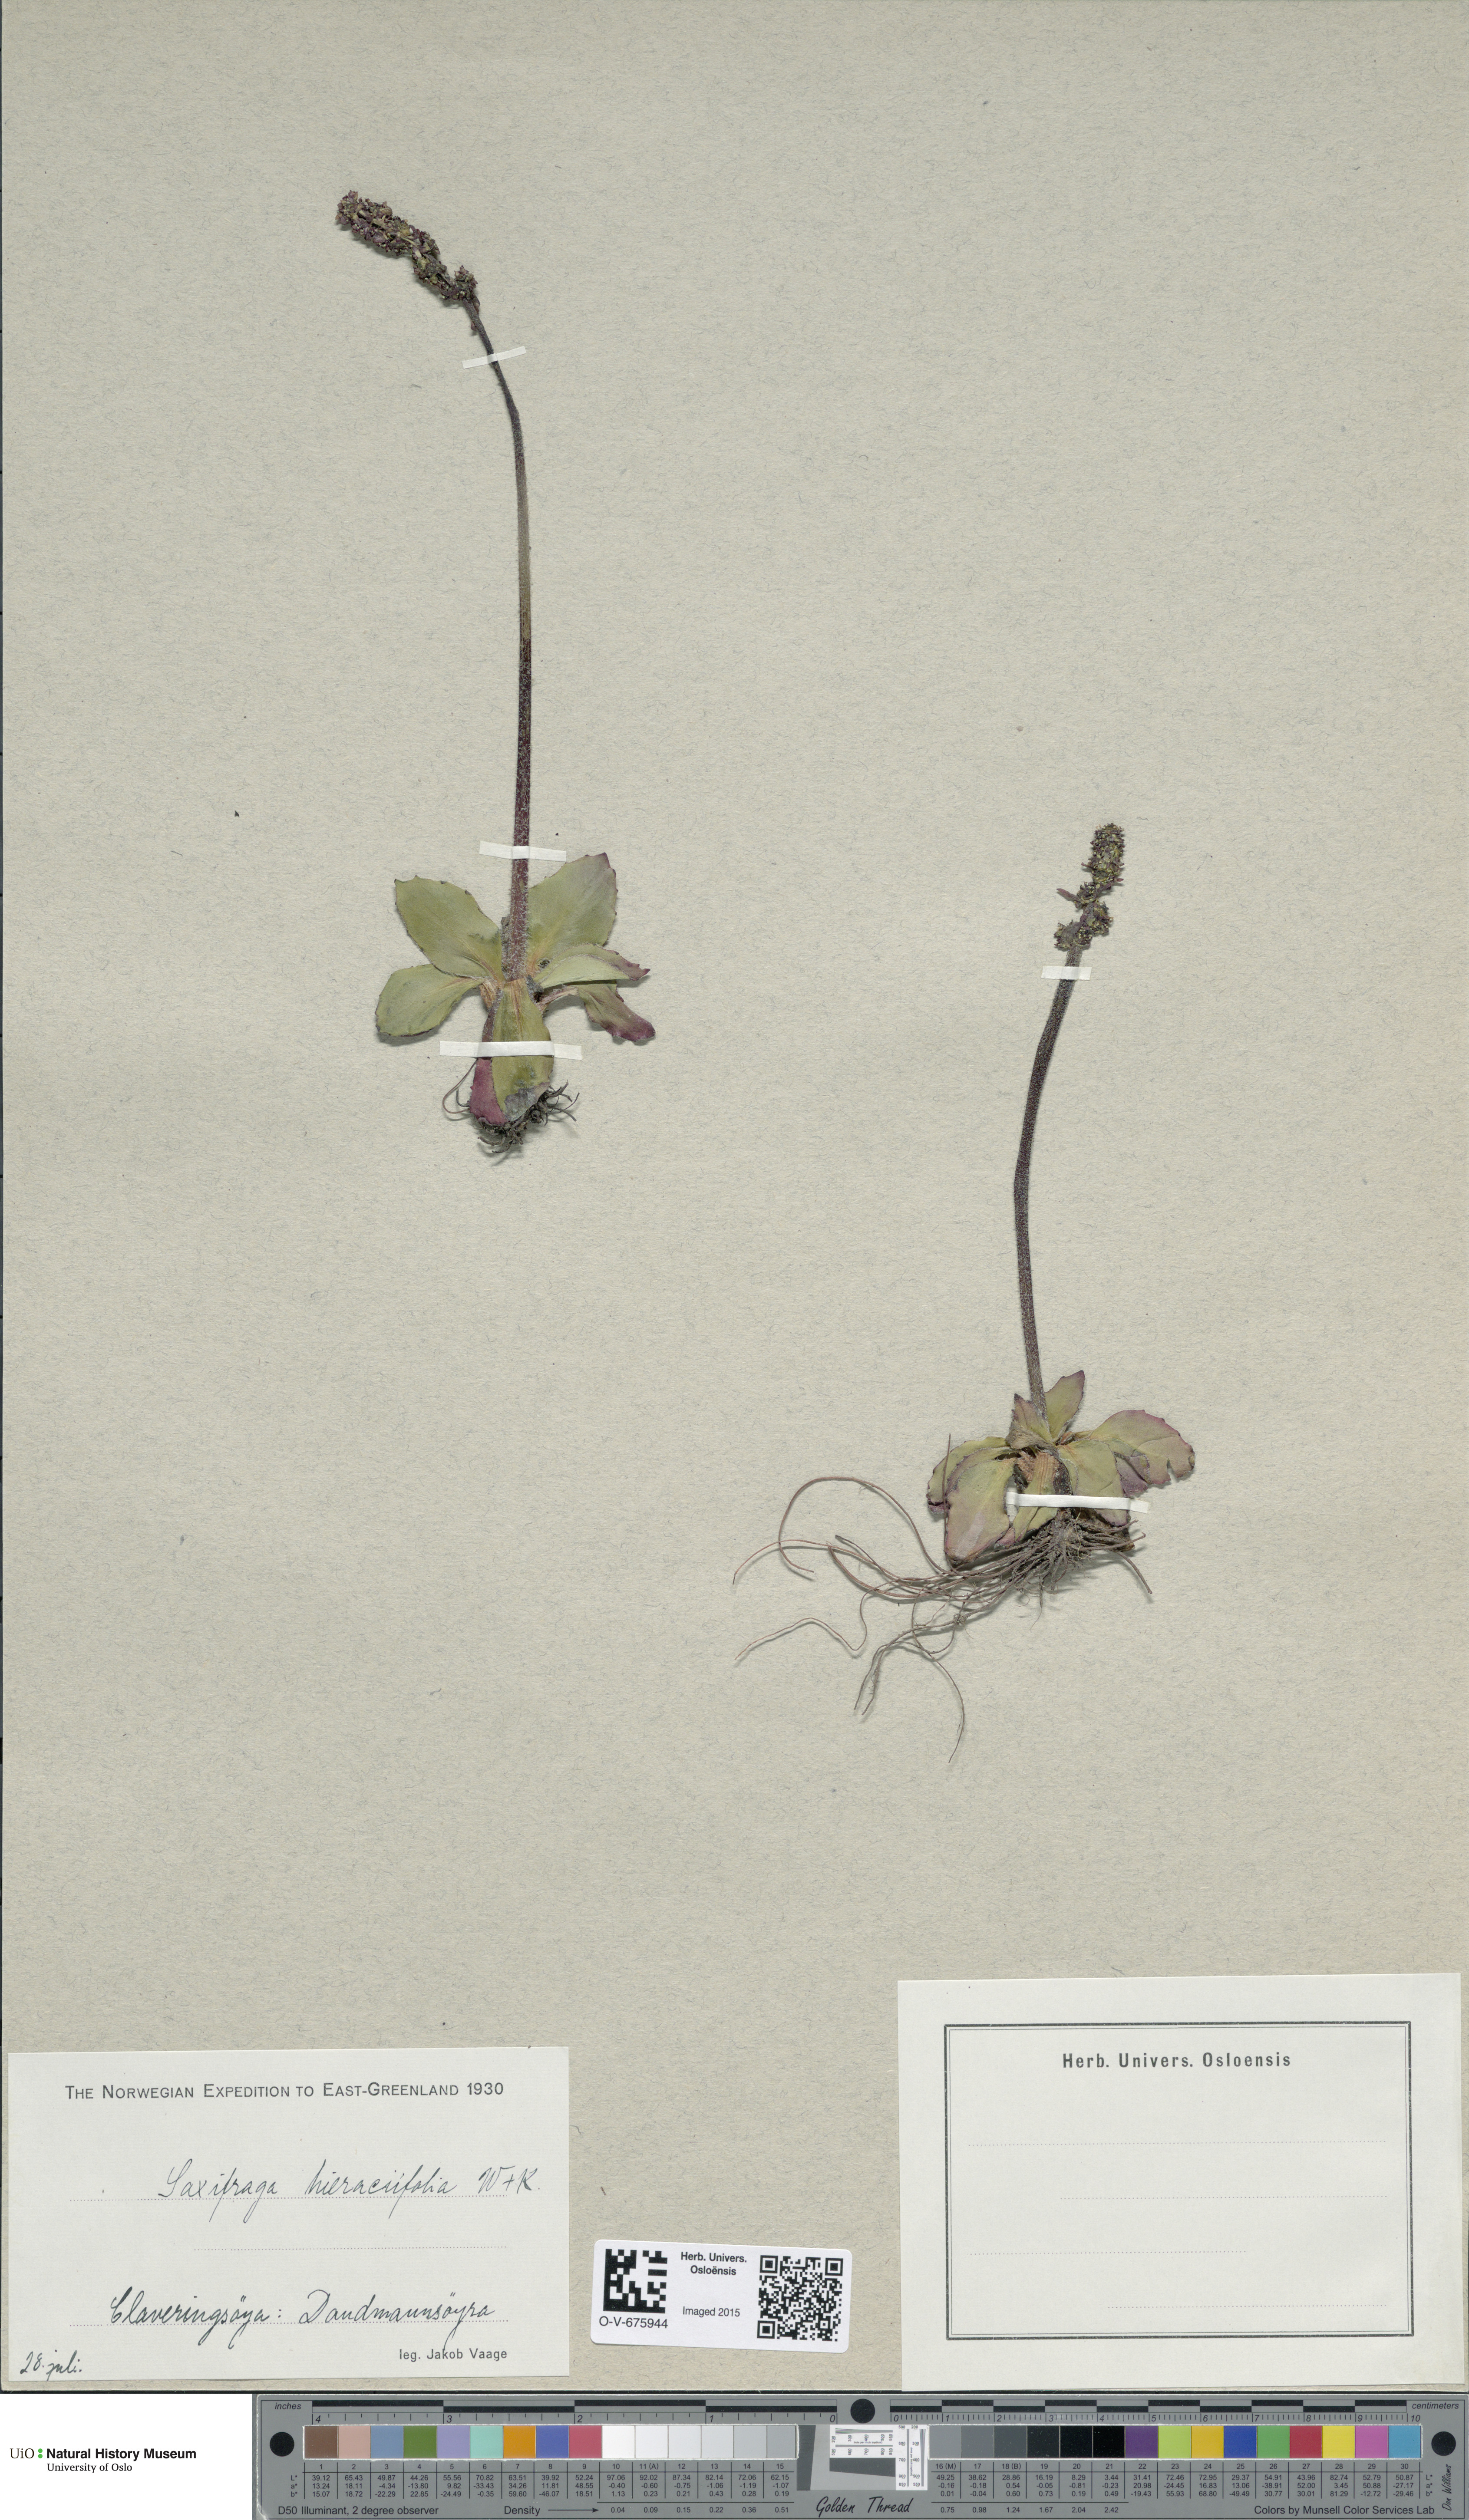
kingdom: Plantae
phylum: Tracheophyta
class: Magnoliopsida
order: Saxifragales
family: Saxifragaceae
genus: Micranthes
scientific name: Micranthes hieraciifolia
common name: Hawkweed-leaved saxifrage
